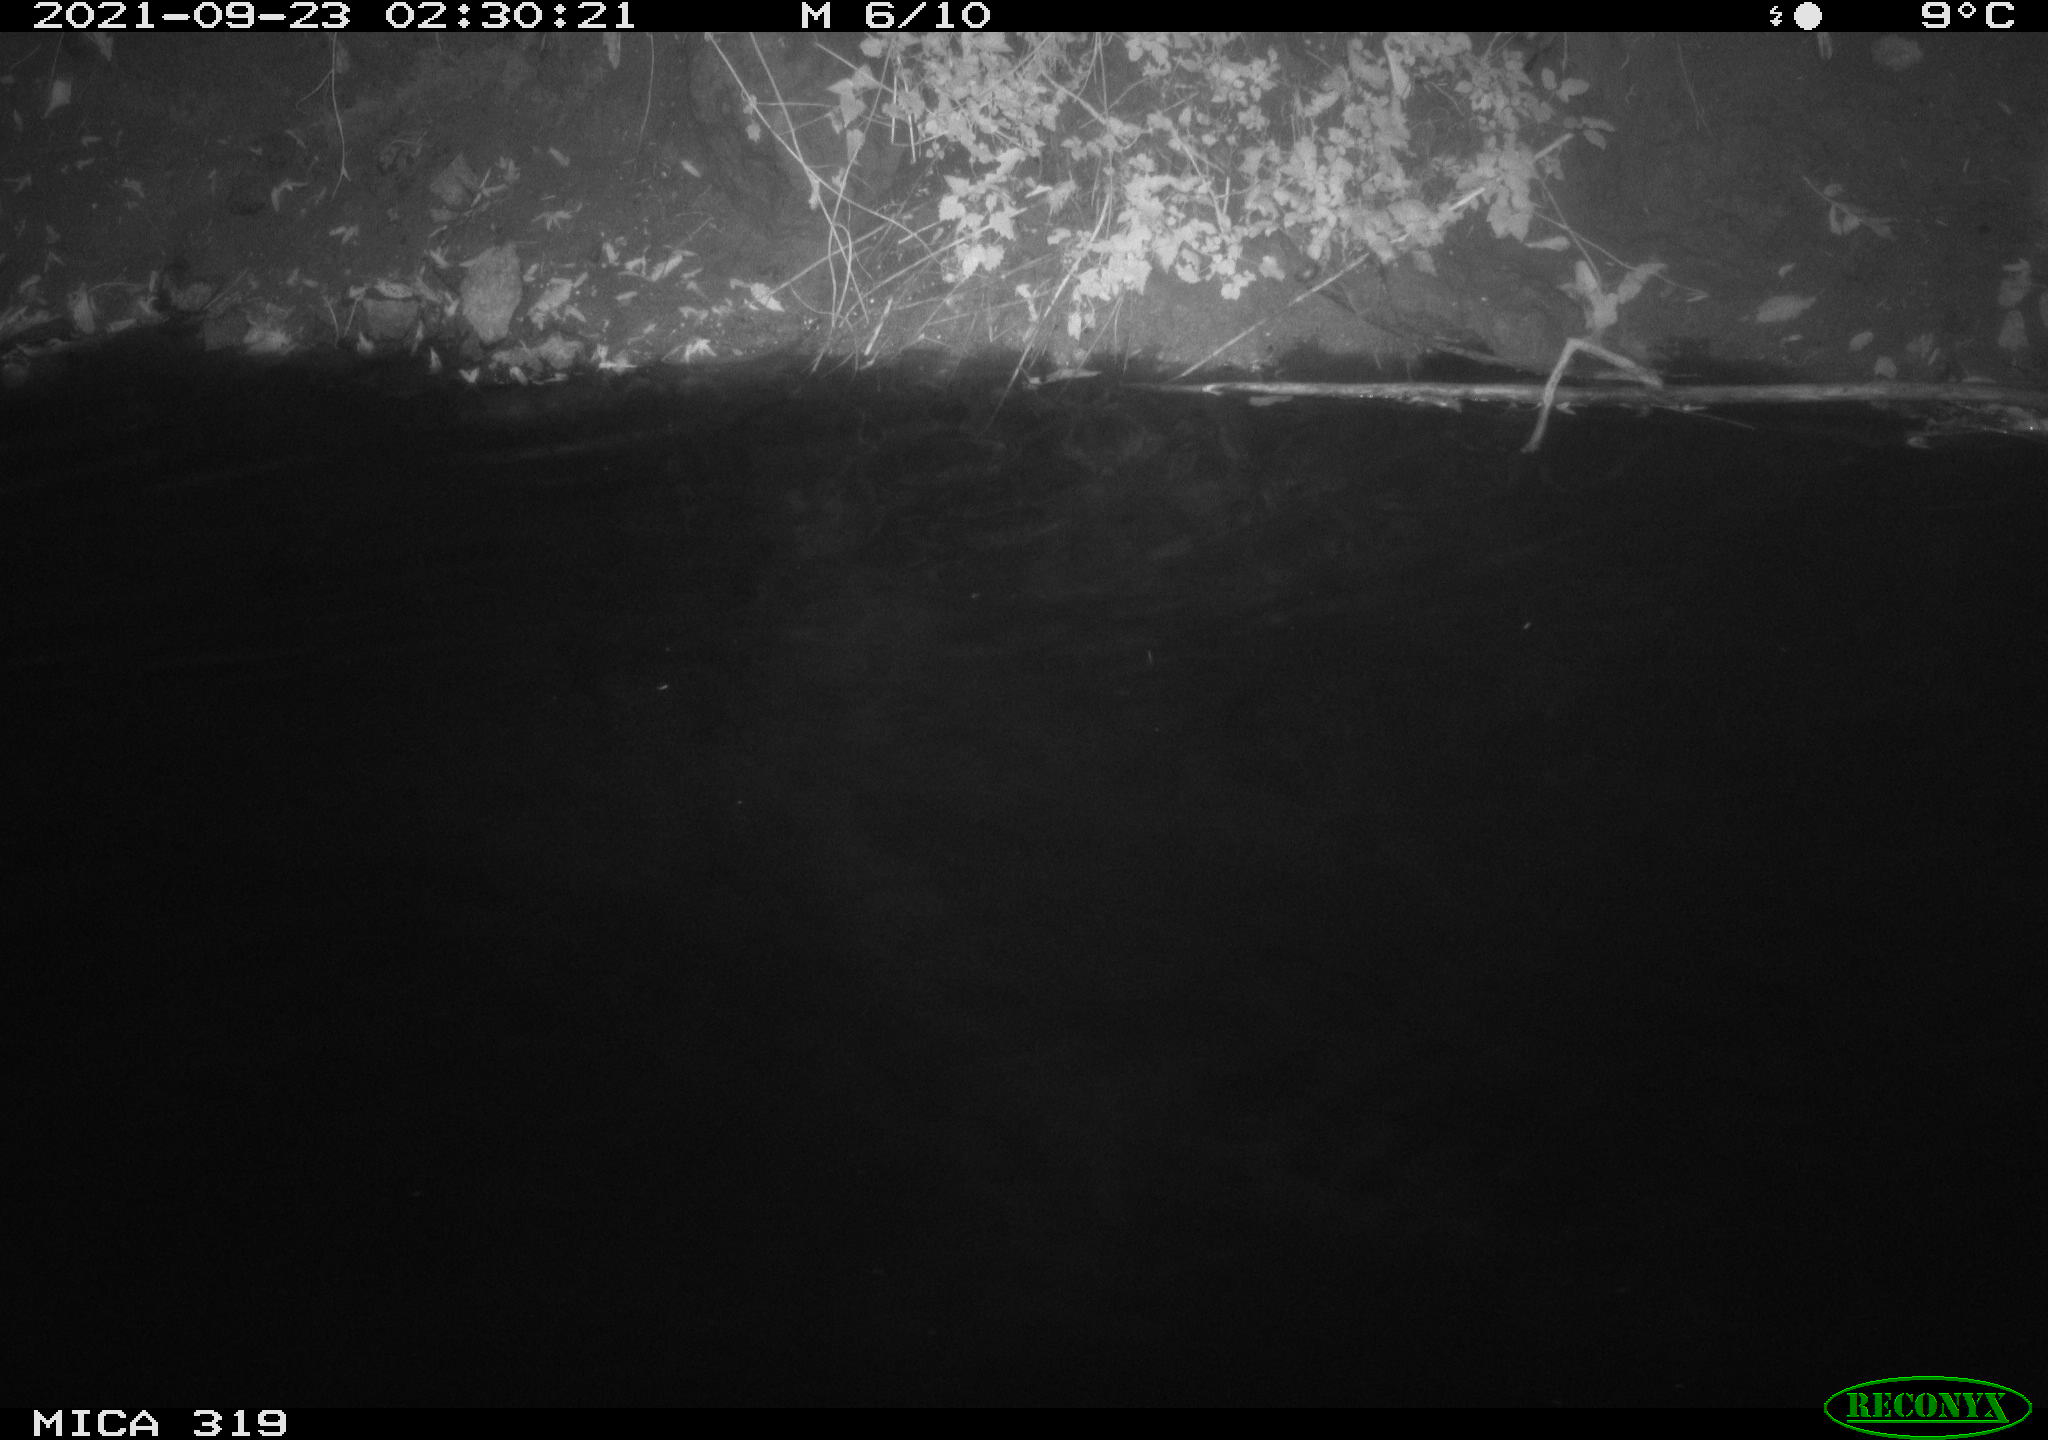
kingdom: Animalia
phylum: Chordata
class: Aves
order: Anseriformes
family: Anatidae
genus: Anas
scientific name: Anas platyrhynchos
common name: Mallard
